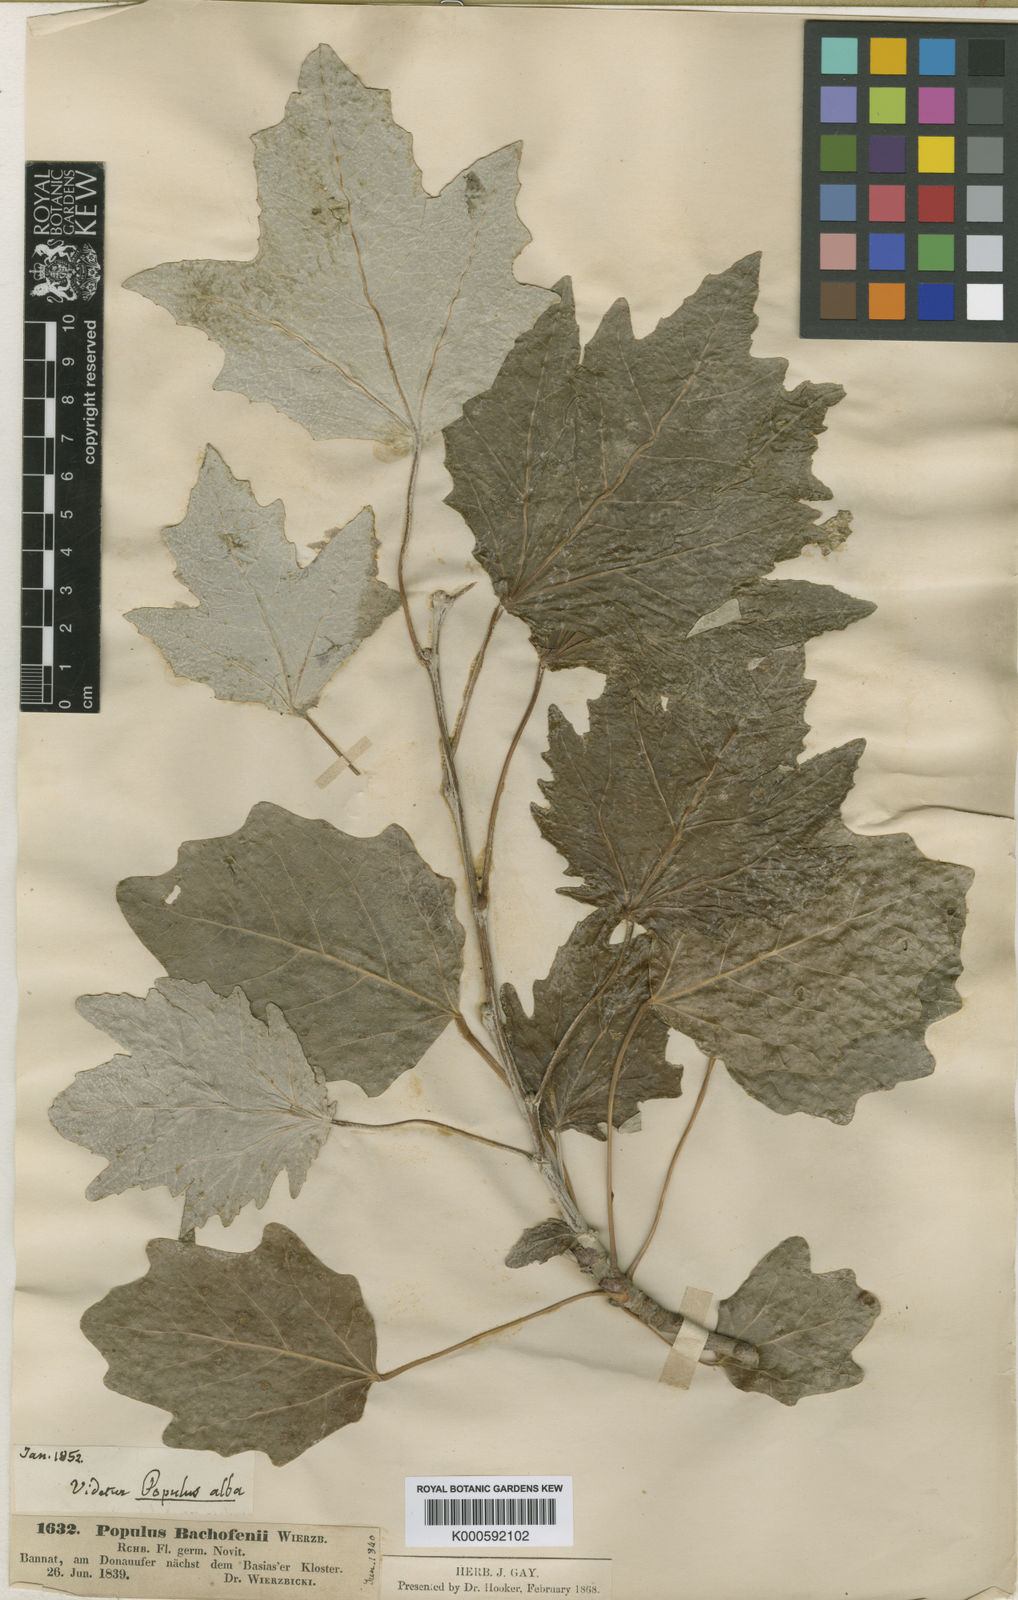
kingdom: Plantae
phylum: Tracheophyta
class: Magnoliopsida
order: Malpighiales
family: Salicaceae
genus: Populus
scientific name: Populus alba
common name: White poplar
